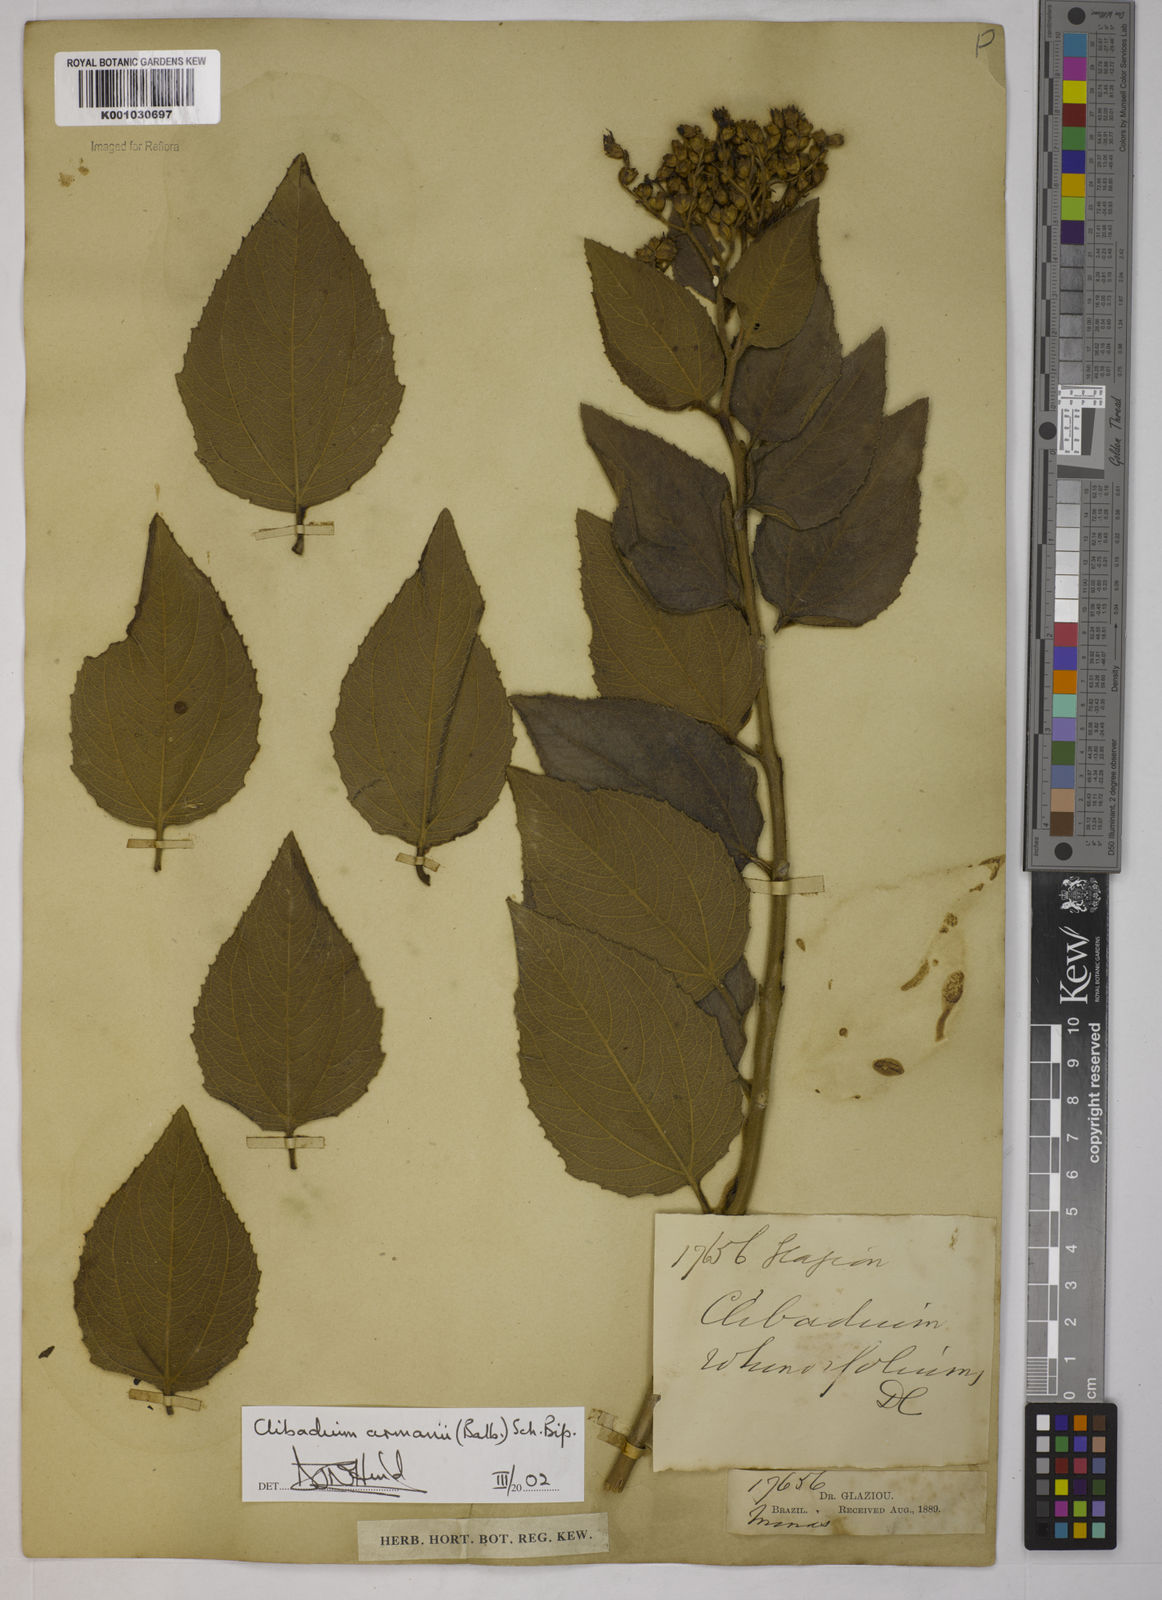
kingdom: Plantae
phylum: Tracheophyta
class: Magnoliopsida
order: Asterales
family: Asteraceae
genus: Clibadium
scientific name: Clibadium armanii
